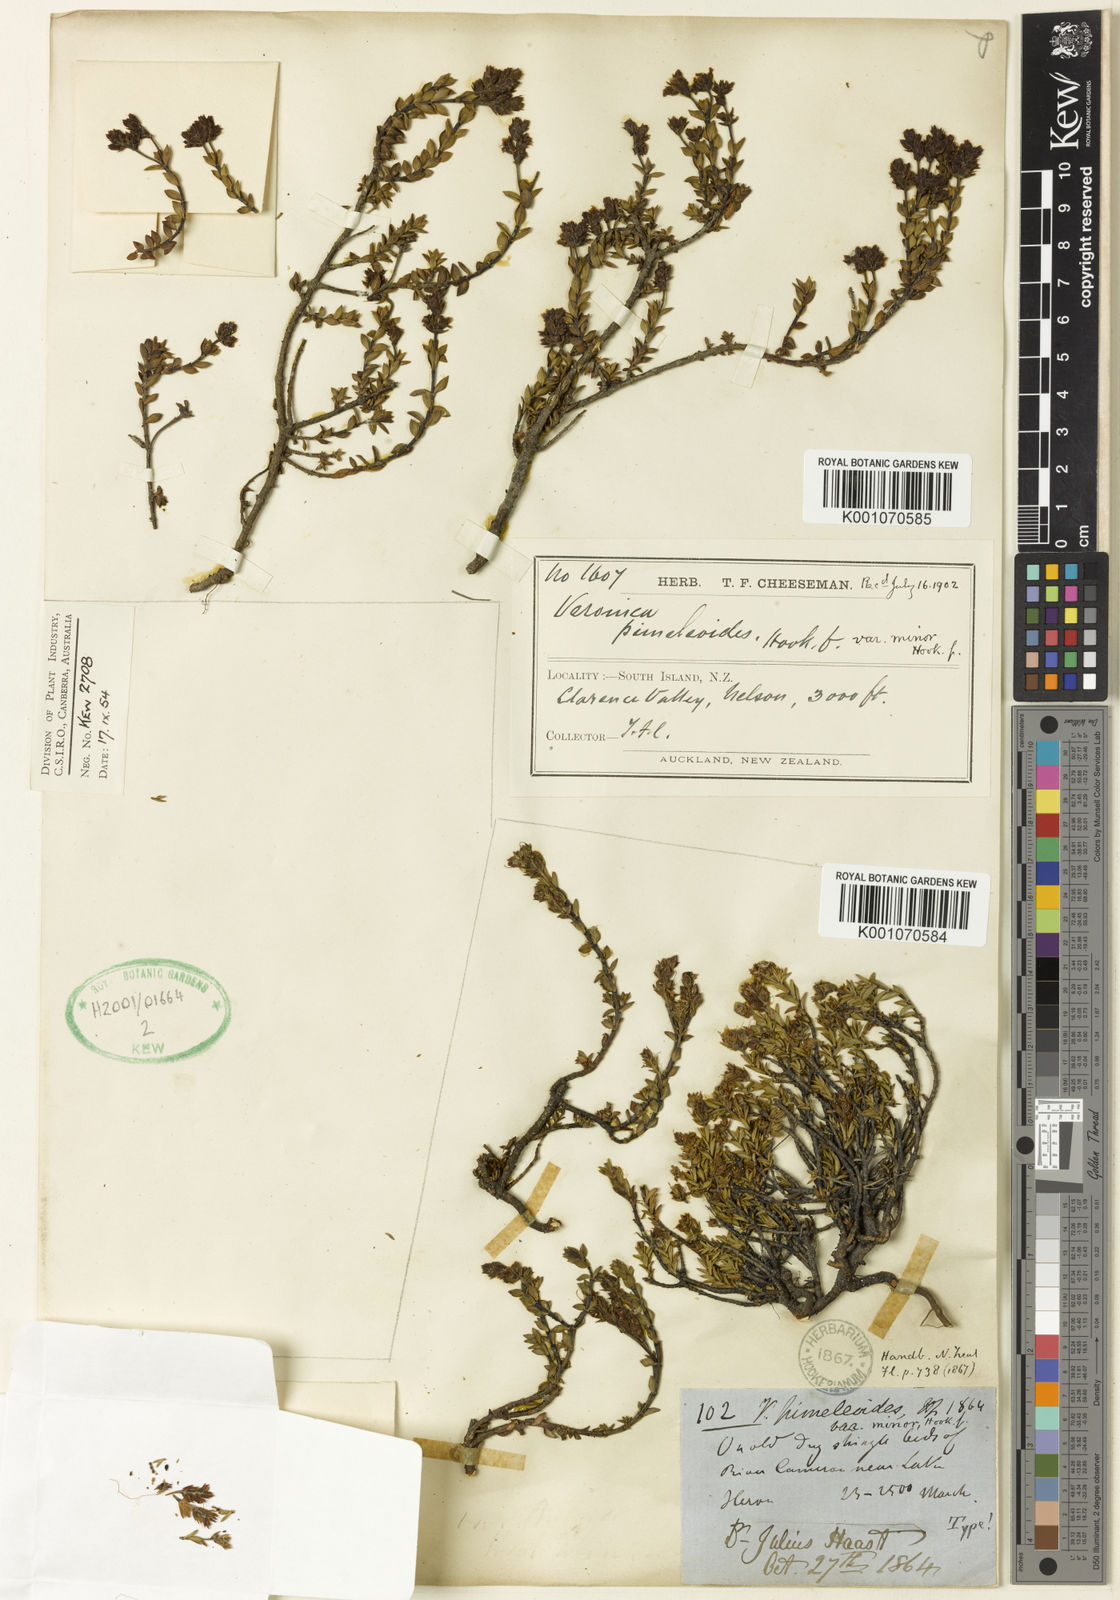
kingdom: Plantae
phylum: Tracheophyta
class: Magnoliopsida
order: Lamiales
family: Plantaginaceae
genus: Veronica
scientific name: Veronica pimeleoides
